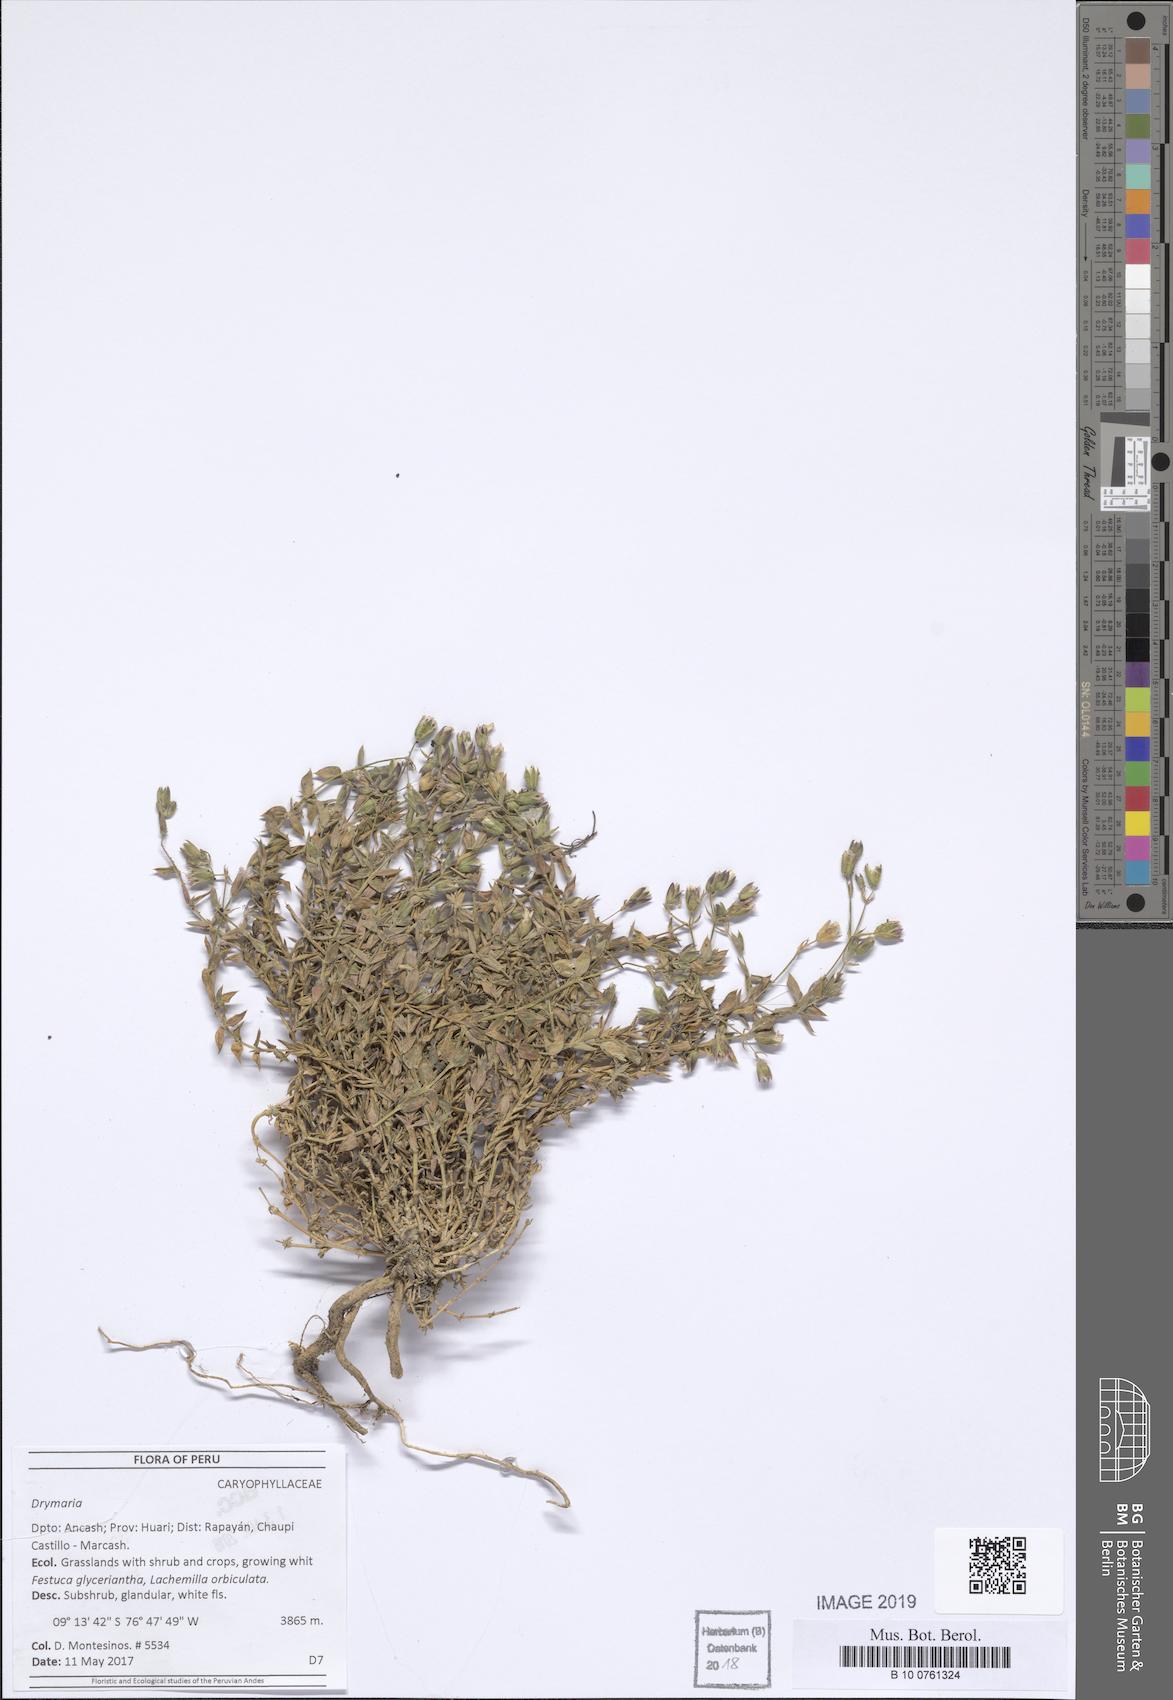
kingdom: Plantae
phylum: Tracheophyta
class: Magnoliopsida
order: Caryophyllales
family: Caryophyllaceae
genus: Drymaria
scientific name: Drymaria
